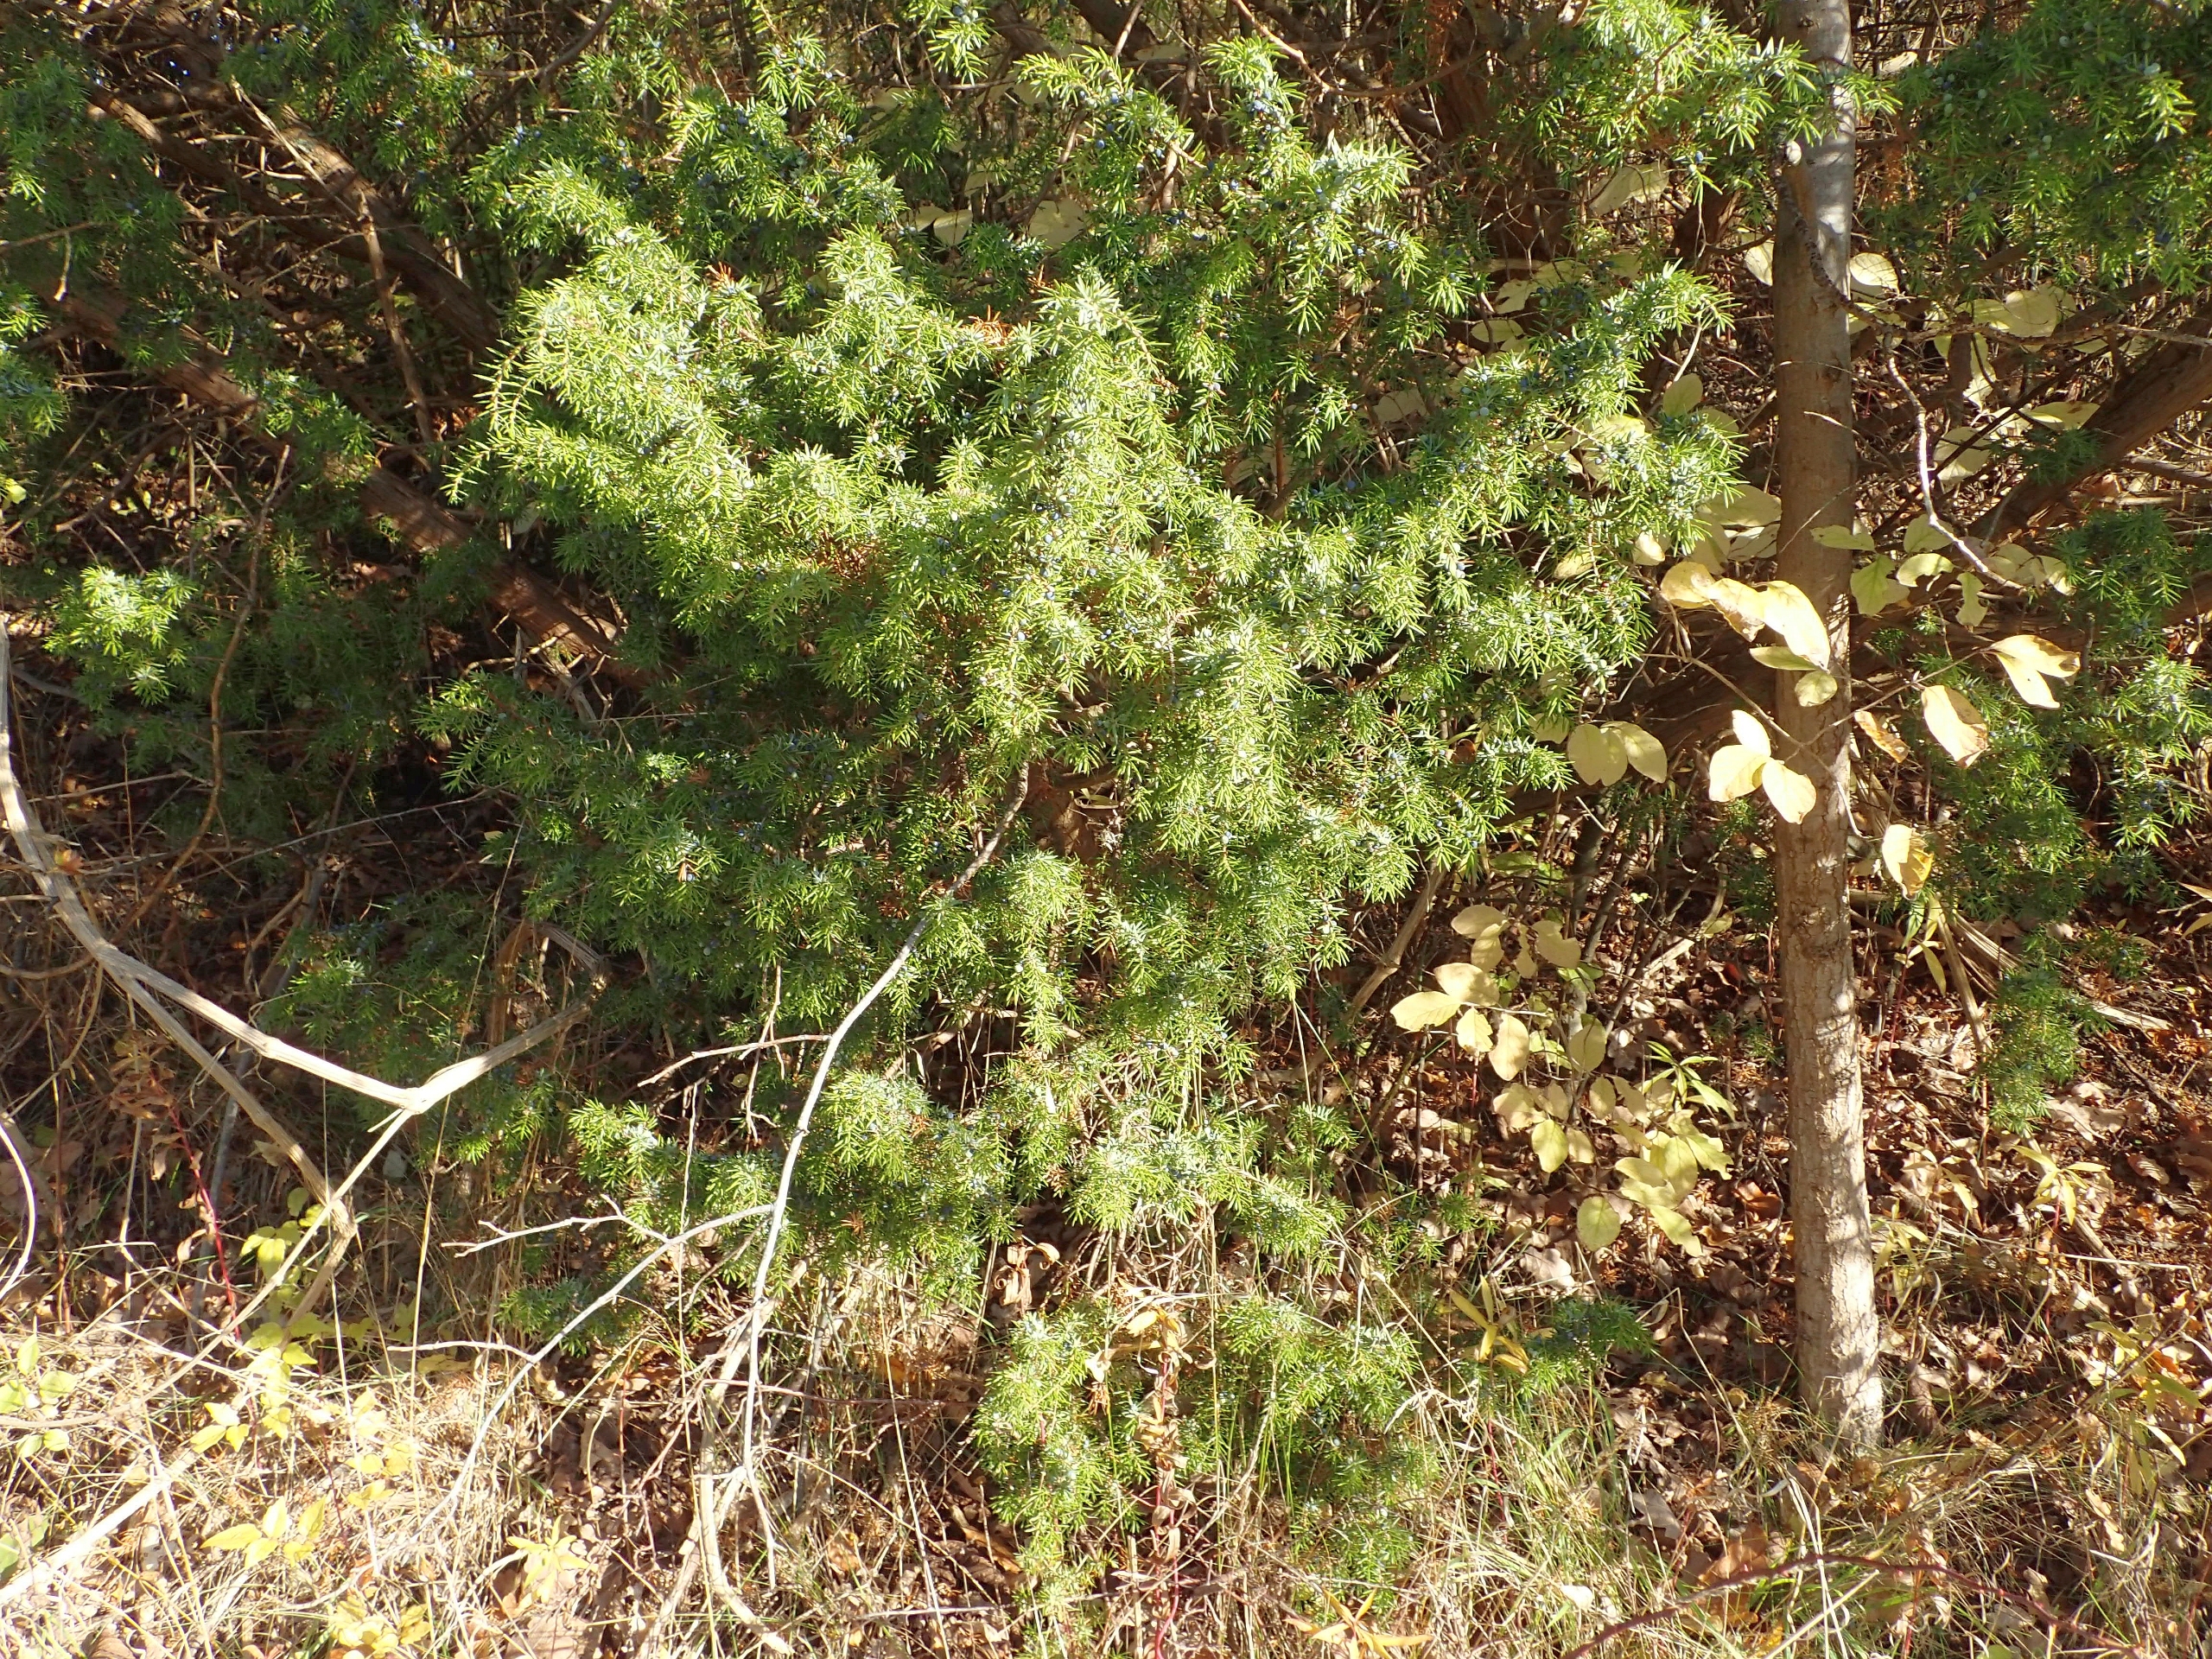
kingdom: Plantae
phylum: Tracheophyta
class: Pinopsida
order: Pinales
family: Cupressaceae
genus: Juniperus
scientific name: Juniperus communis
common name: Almindelig ene
